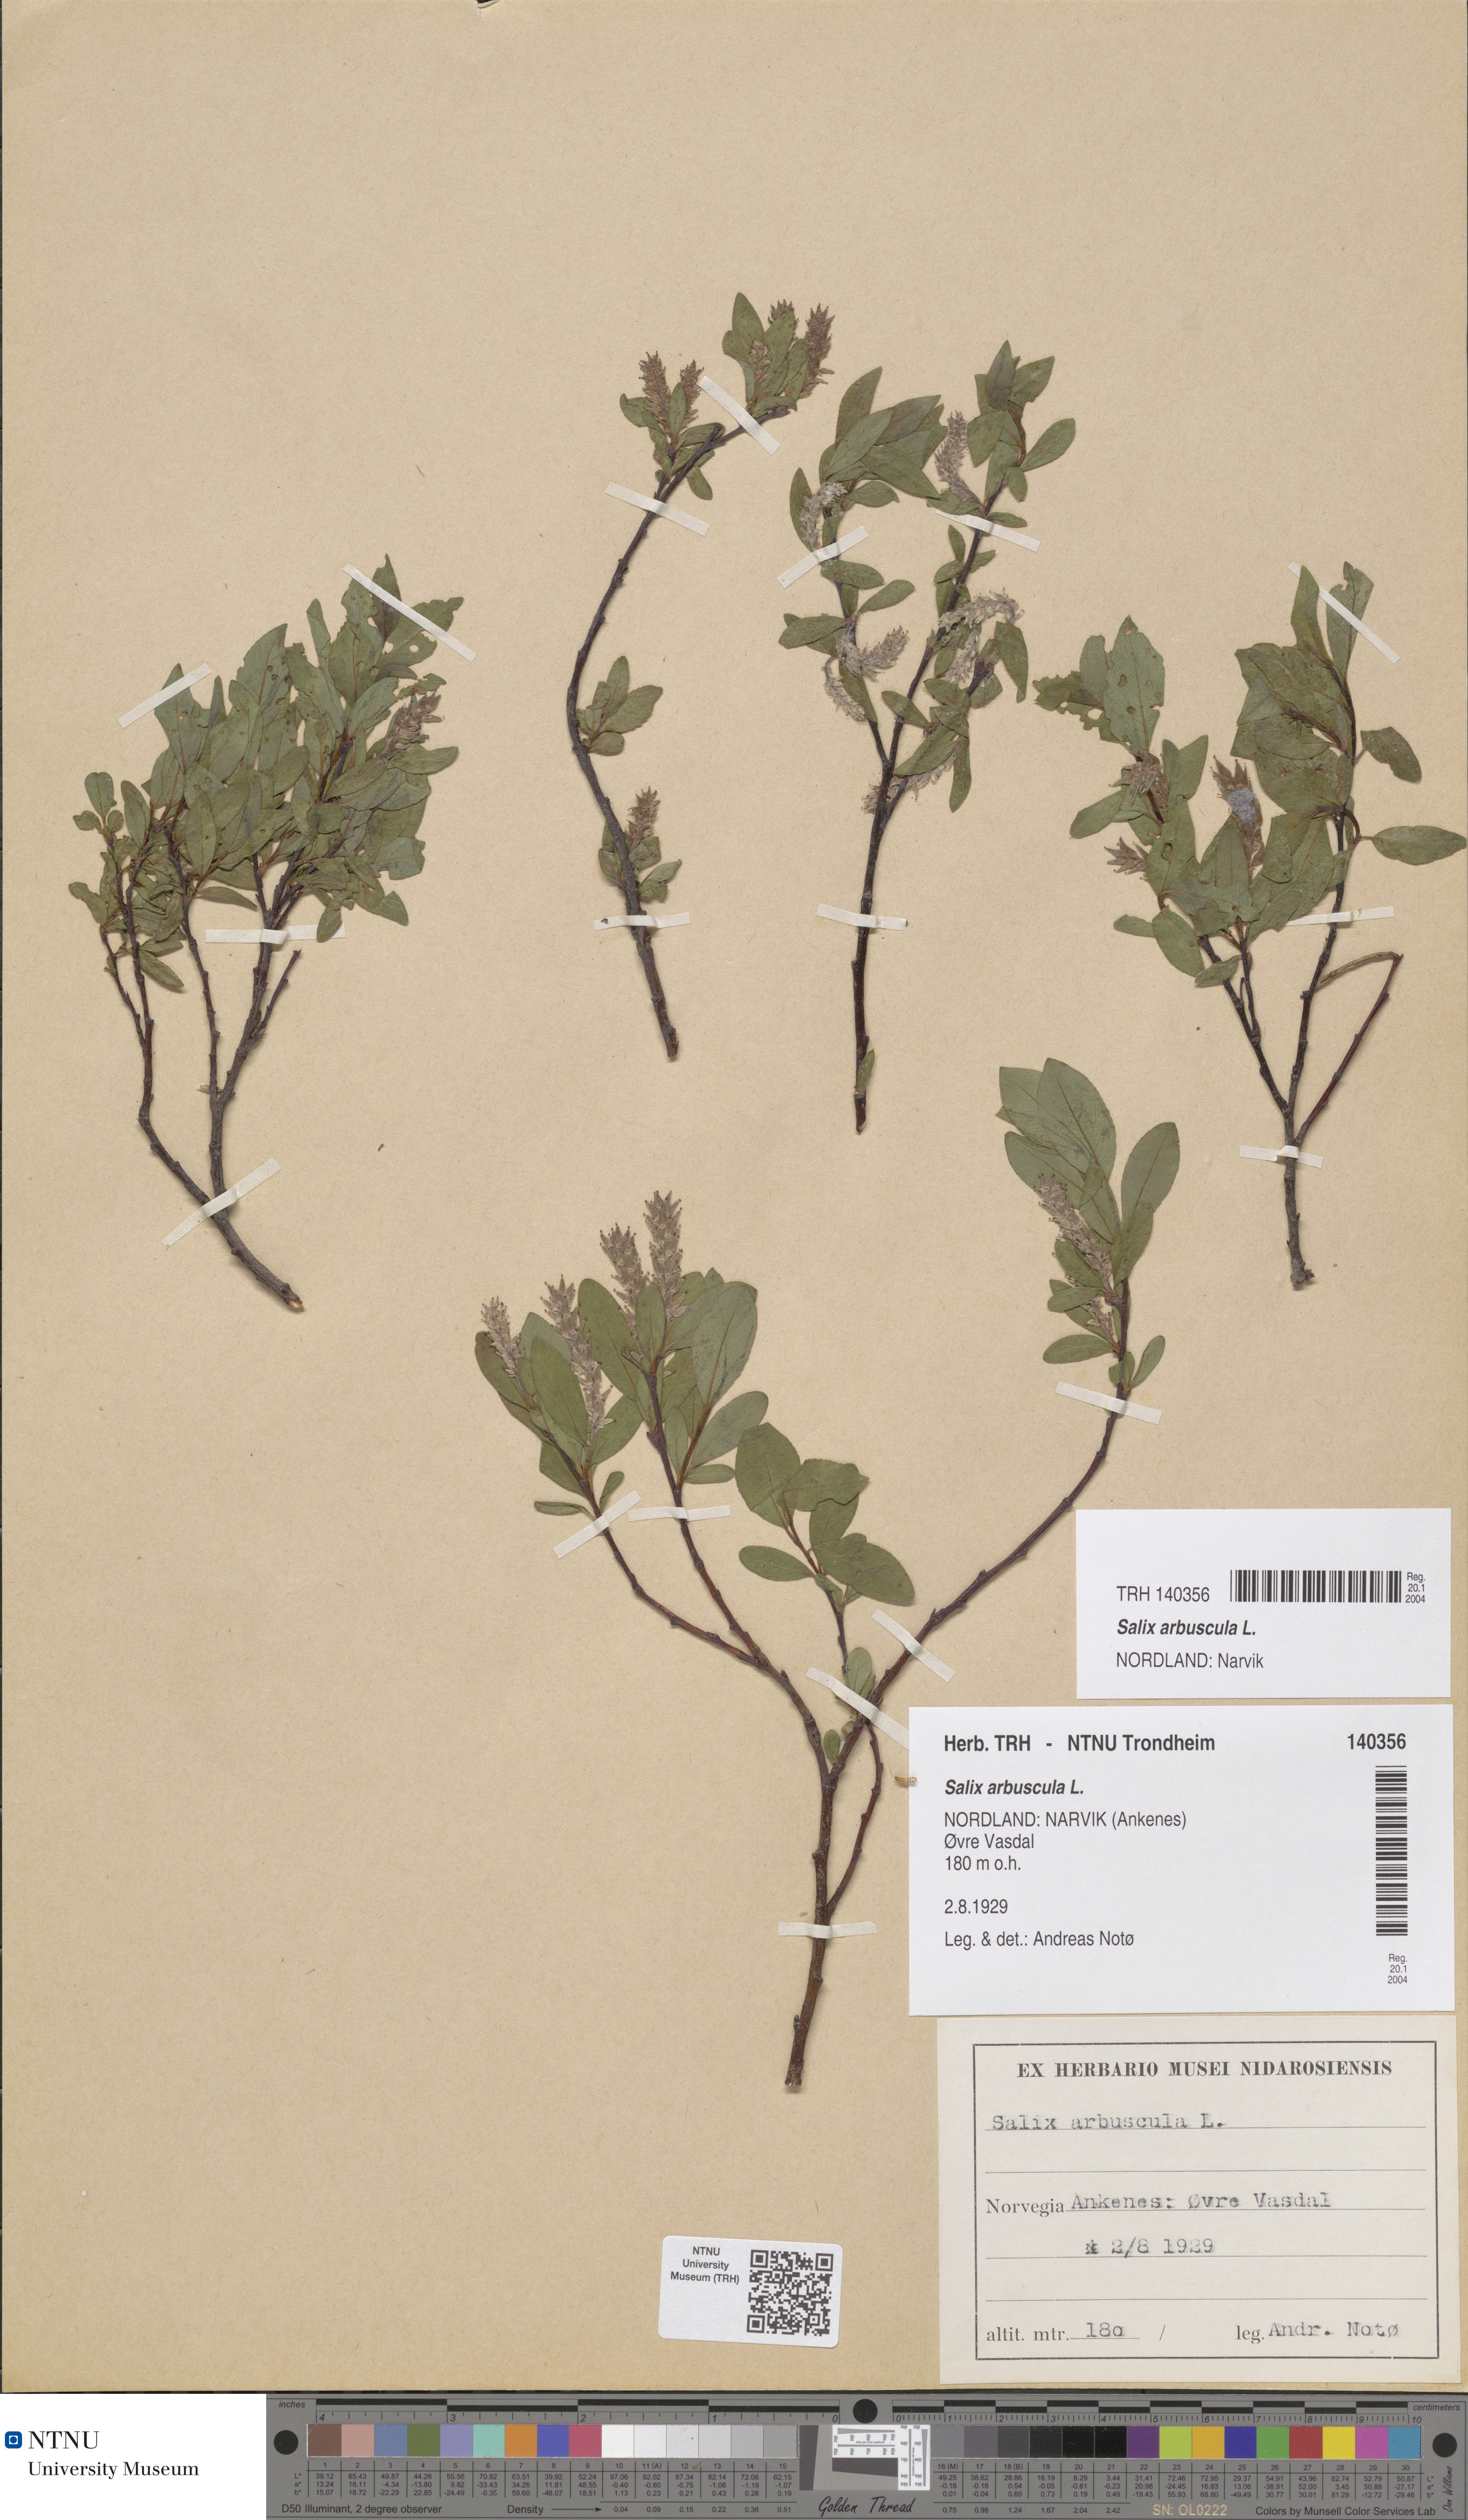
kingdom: Plantae
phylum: Tracheophyta
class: Magnoliopsida
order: Malpighiales
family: Salicaceae
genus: Salix
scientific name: Salix arbuscula
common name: Mountain willow
